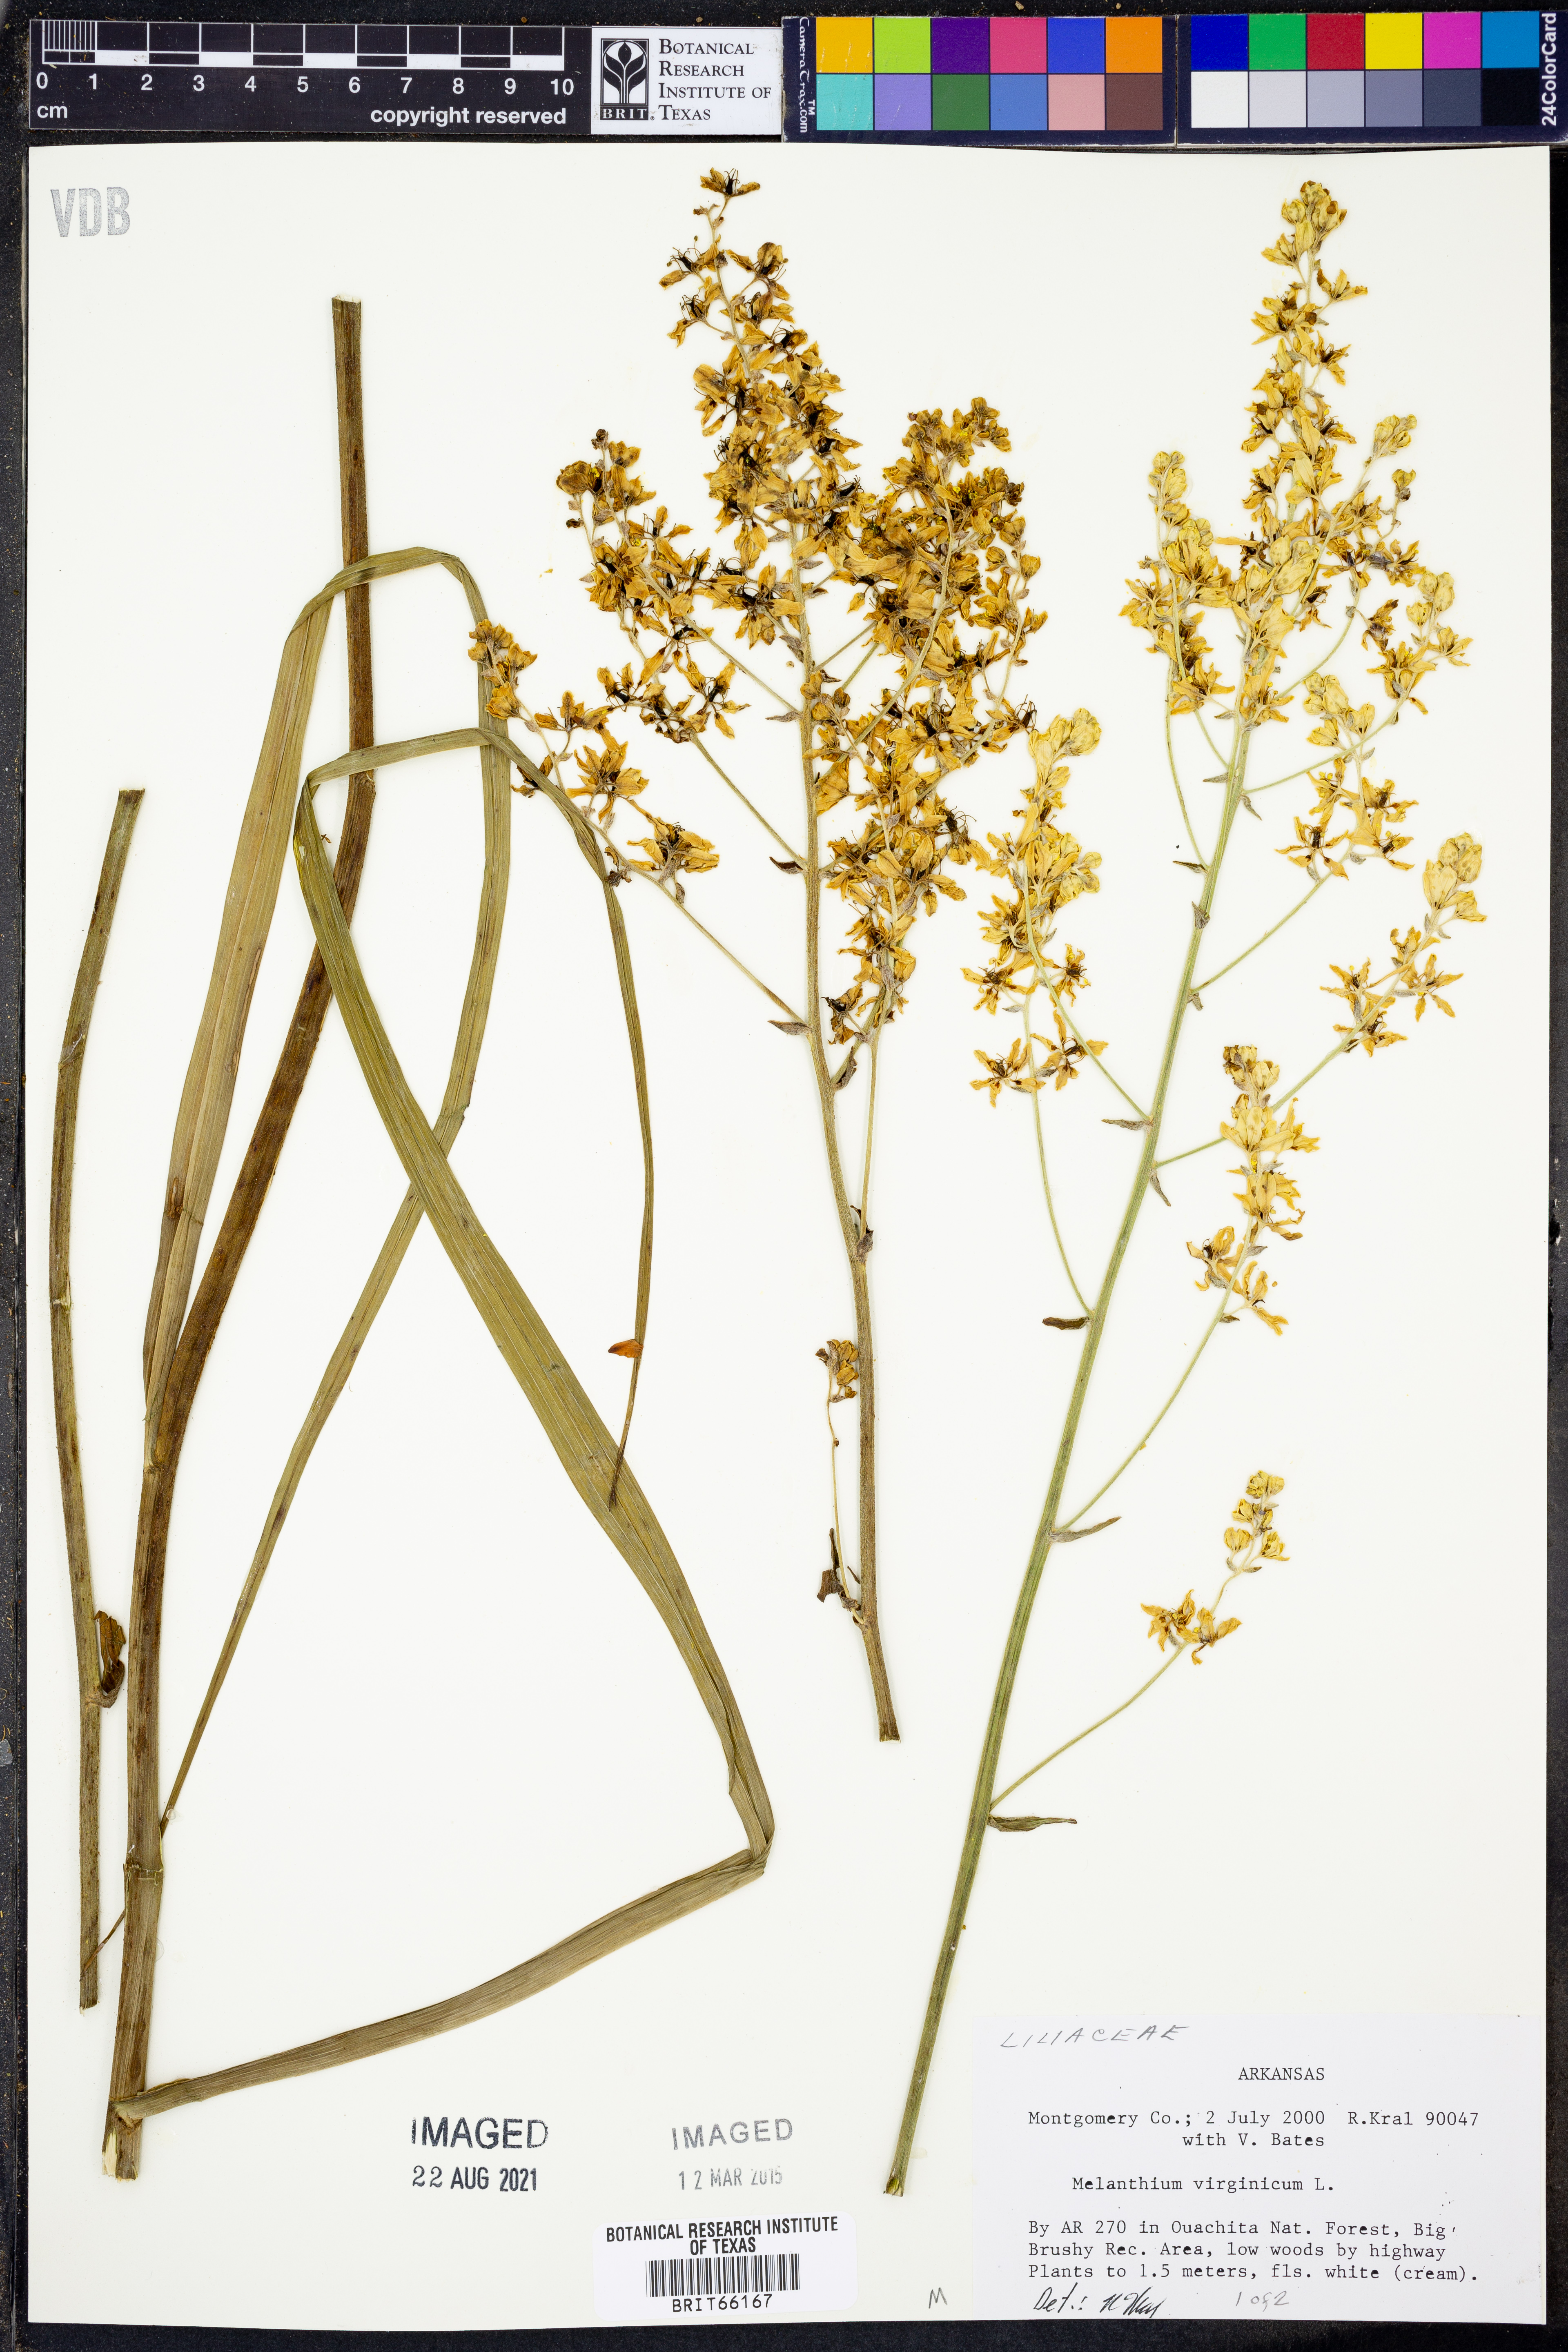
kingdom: Plantae
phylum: Tracheophyta
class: Liliopsida
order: Liliales
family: Melanthiaceae
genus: Melanthium
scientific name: Melanthium virginicum
